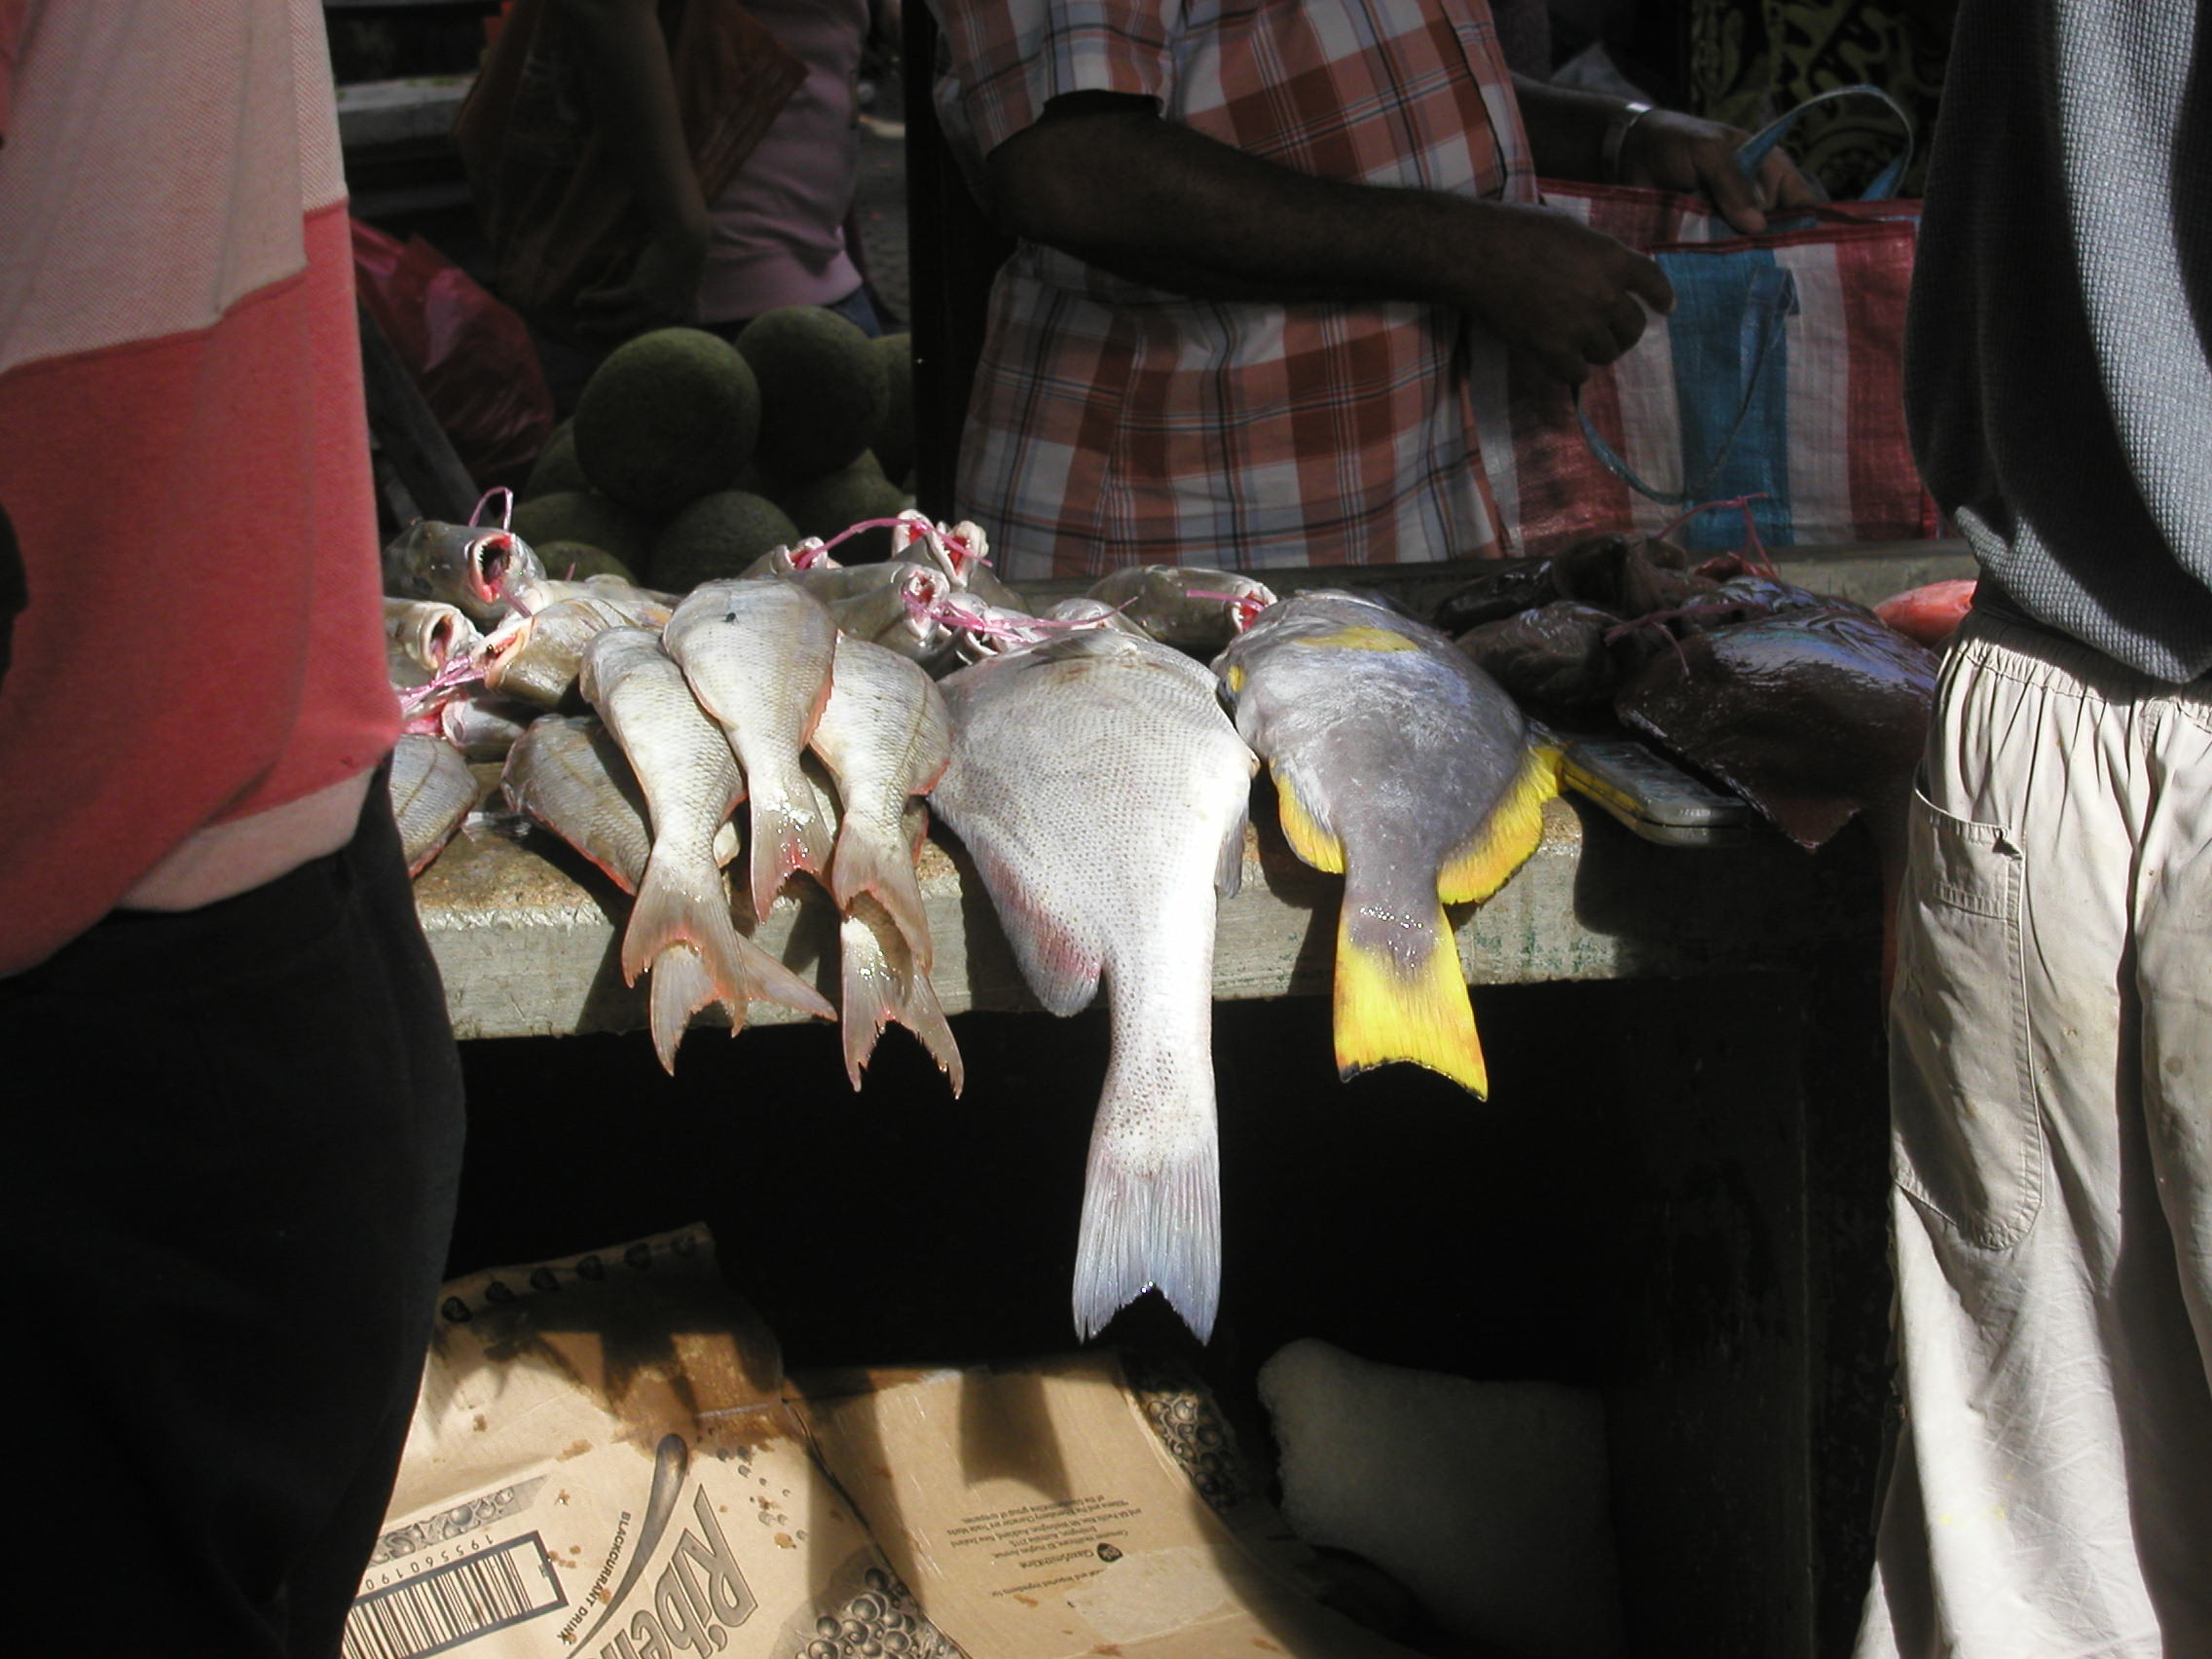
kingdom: Animalia
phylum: Chordata
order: Perciformes
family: Serranidae
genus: Epinephelus
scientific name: Epinephelus flavocaeruleus
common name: Blue and yellow grouper
